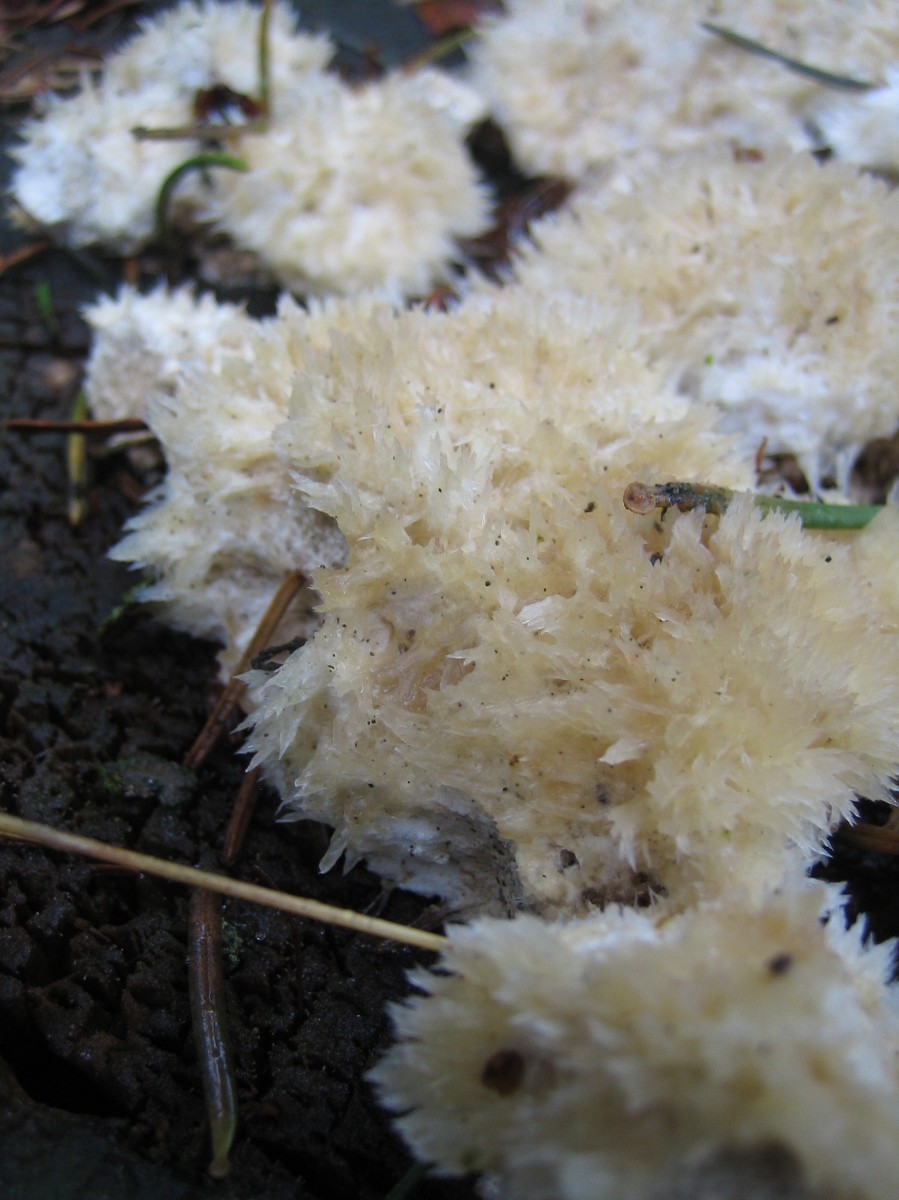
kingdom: Fungi
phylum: Basidiomycota
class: Agaricomycetes
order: Polyporales
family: Dacryobolaceae
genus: Postia
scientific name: Postia ptychogaster
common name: støvende kødporesvamp
